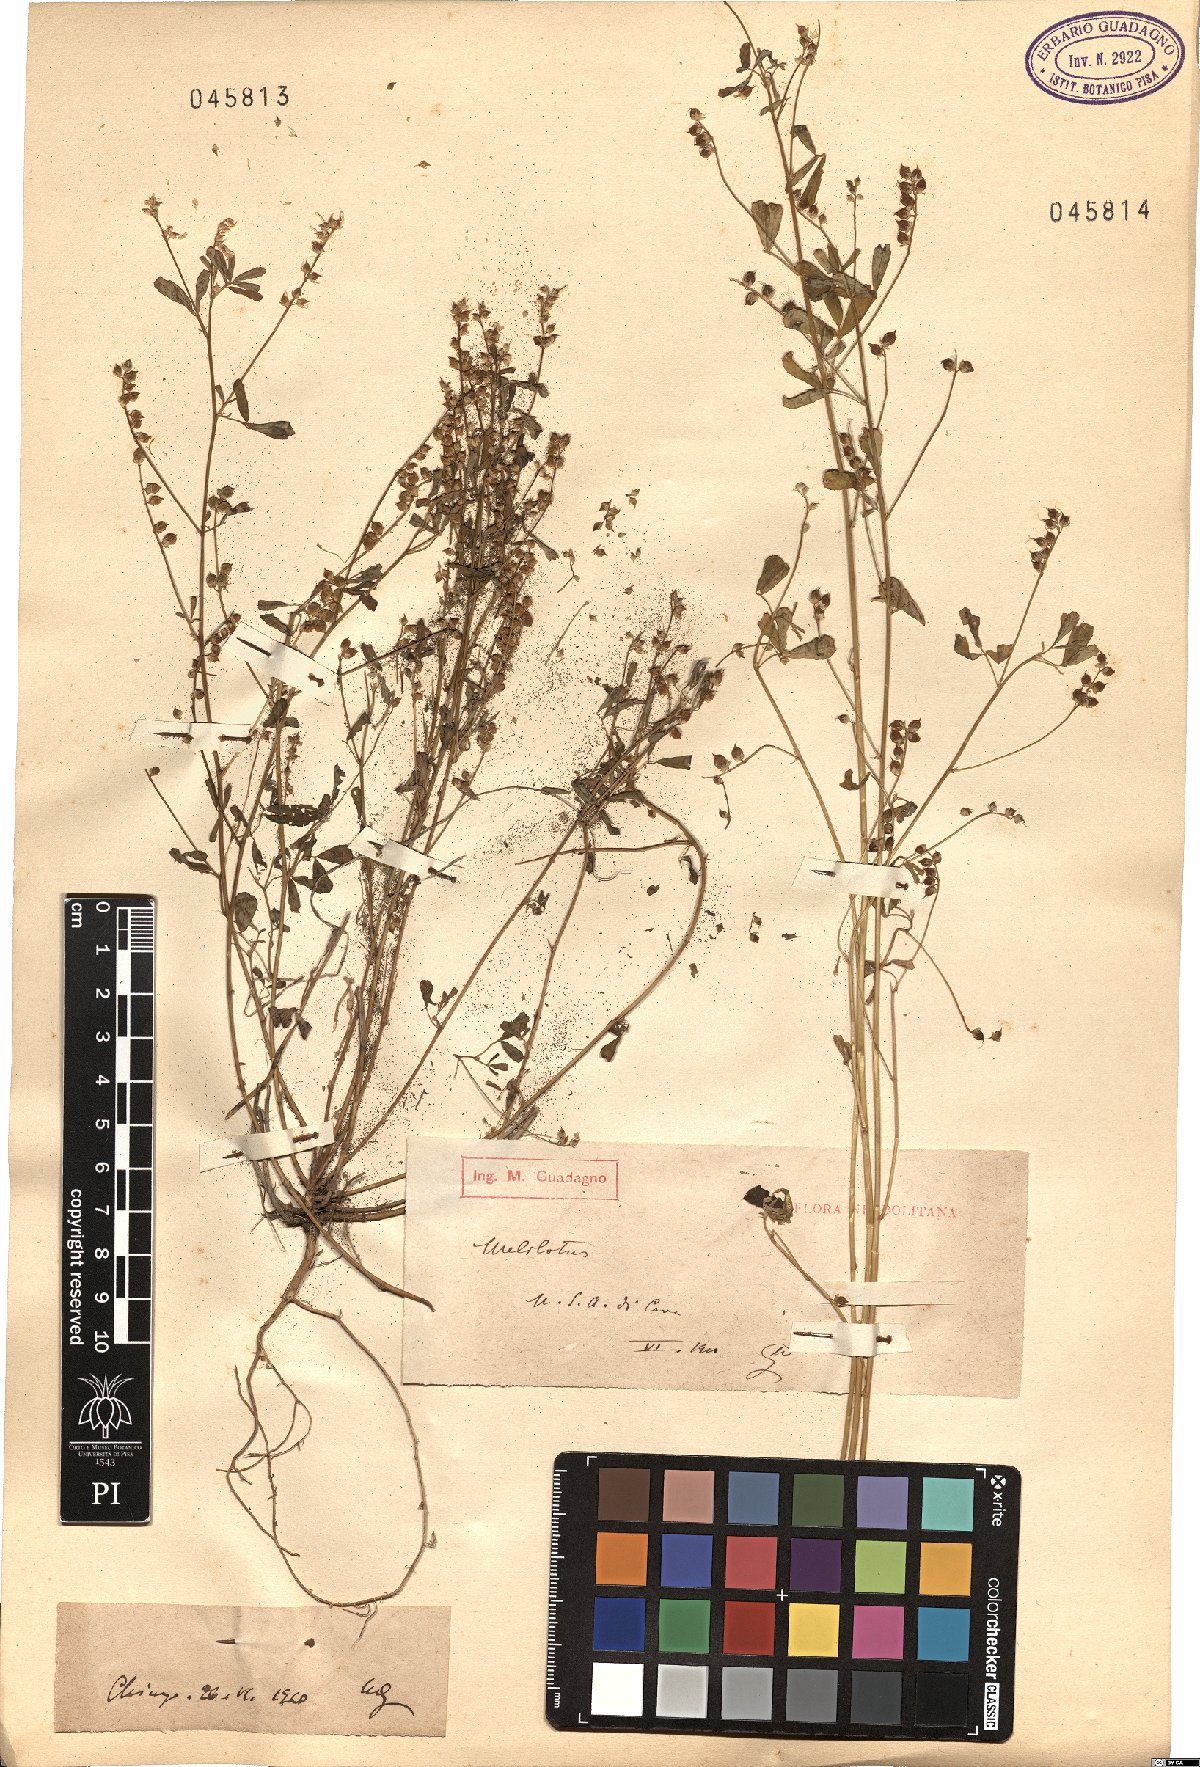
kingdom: Plantae
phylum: Tracheophyta
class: Magnoliopsida
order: Fabales
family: Fabaceae
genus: Melilotus
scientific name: Melilotus
